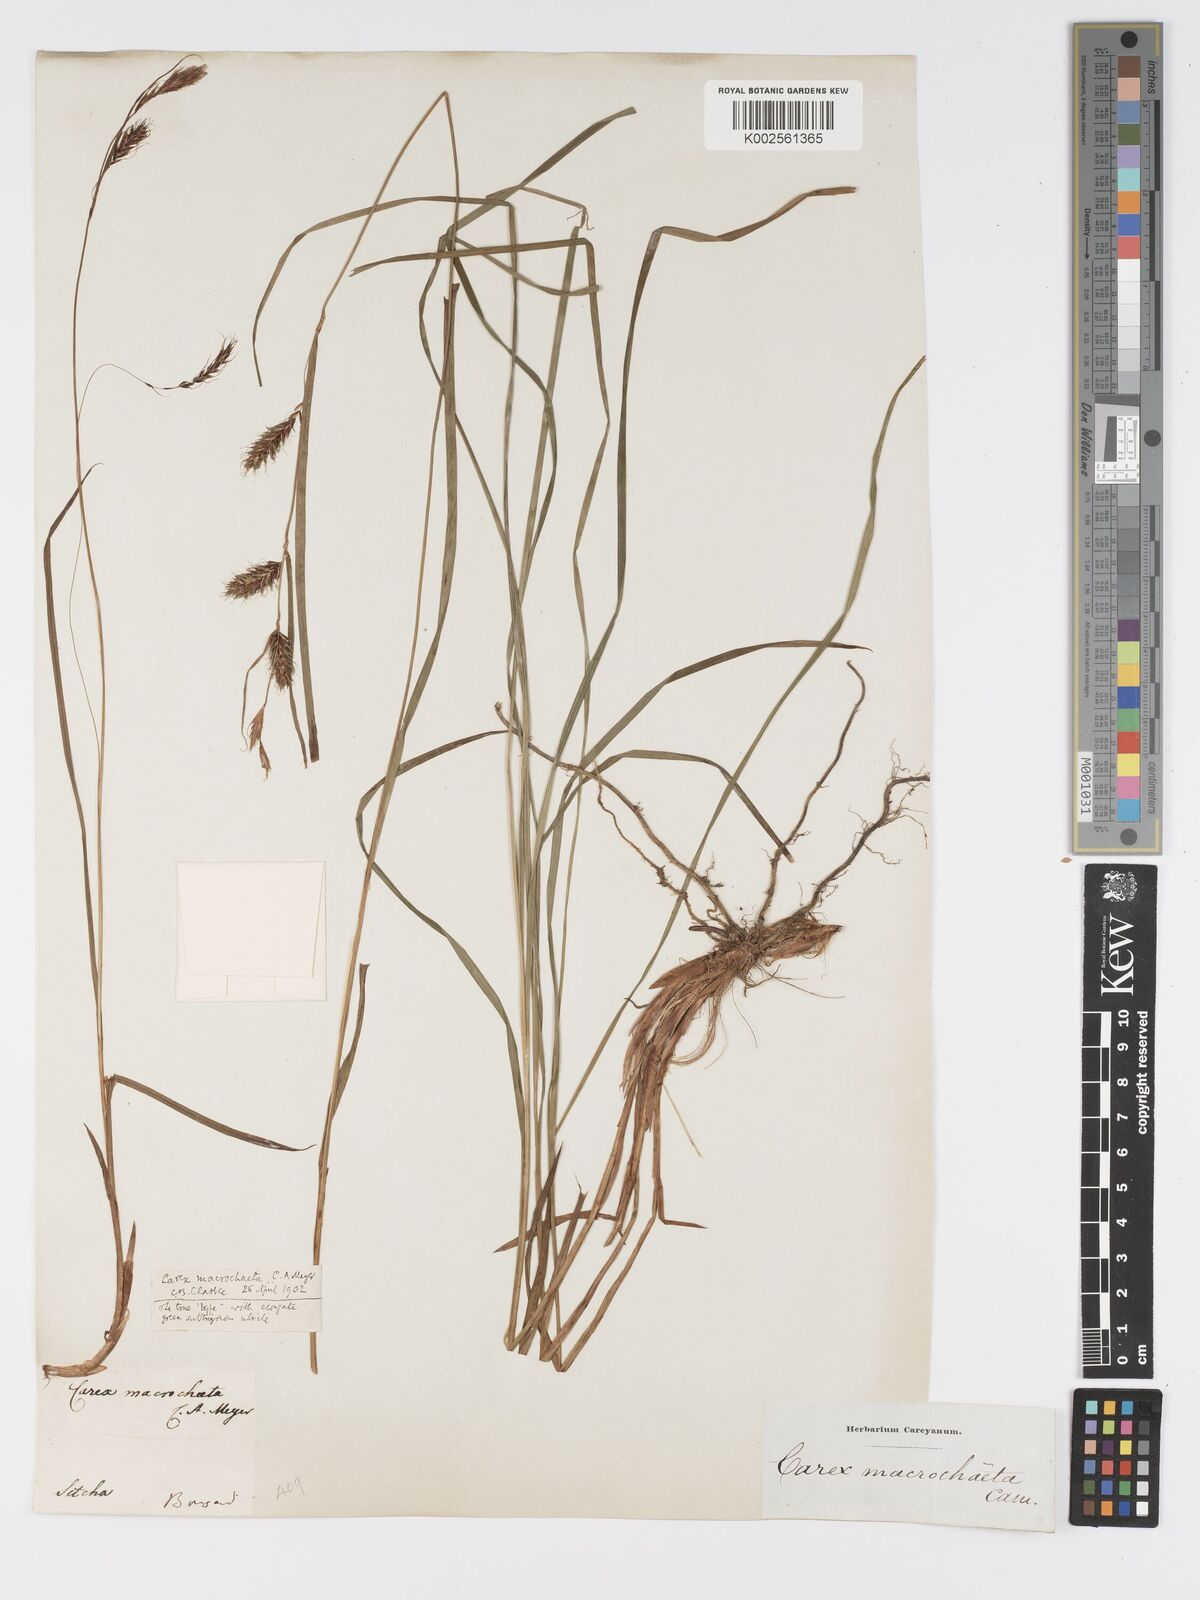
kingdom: Plantae
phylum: Tracheophyta
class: Liliopsida
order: Poales
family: Cyperaceae
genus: Carex
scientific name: Carex macrochaeta
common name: Alaska large awn sedge
